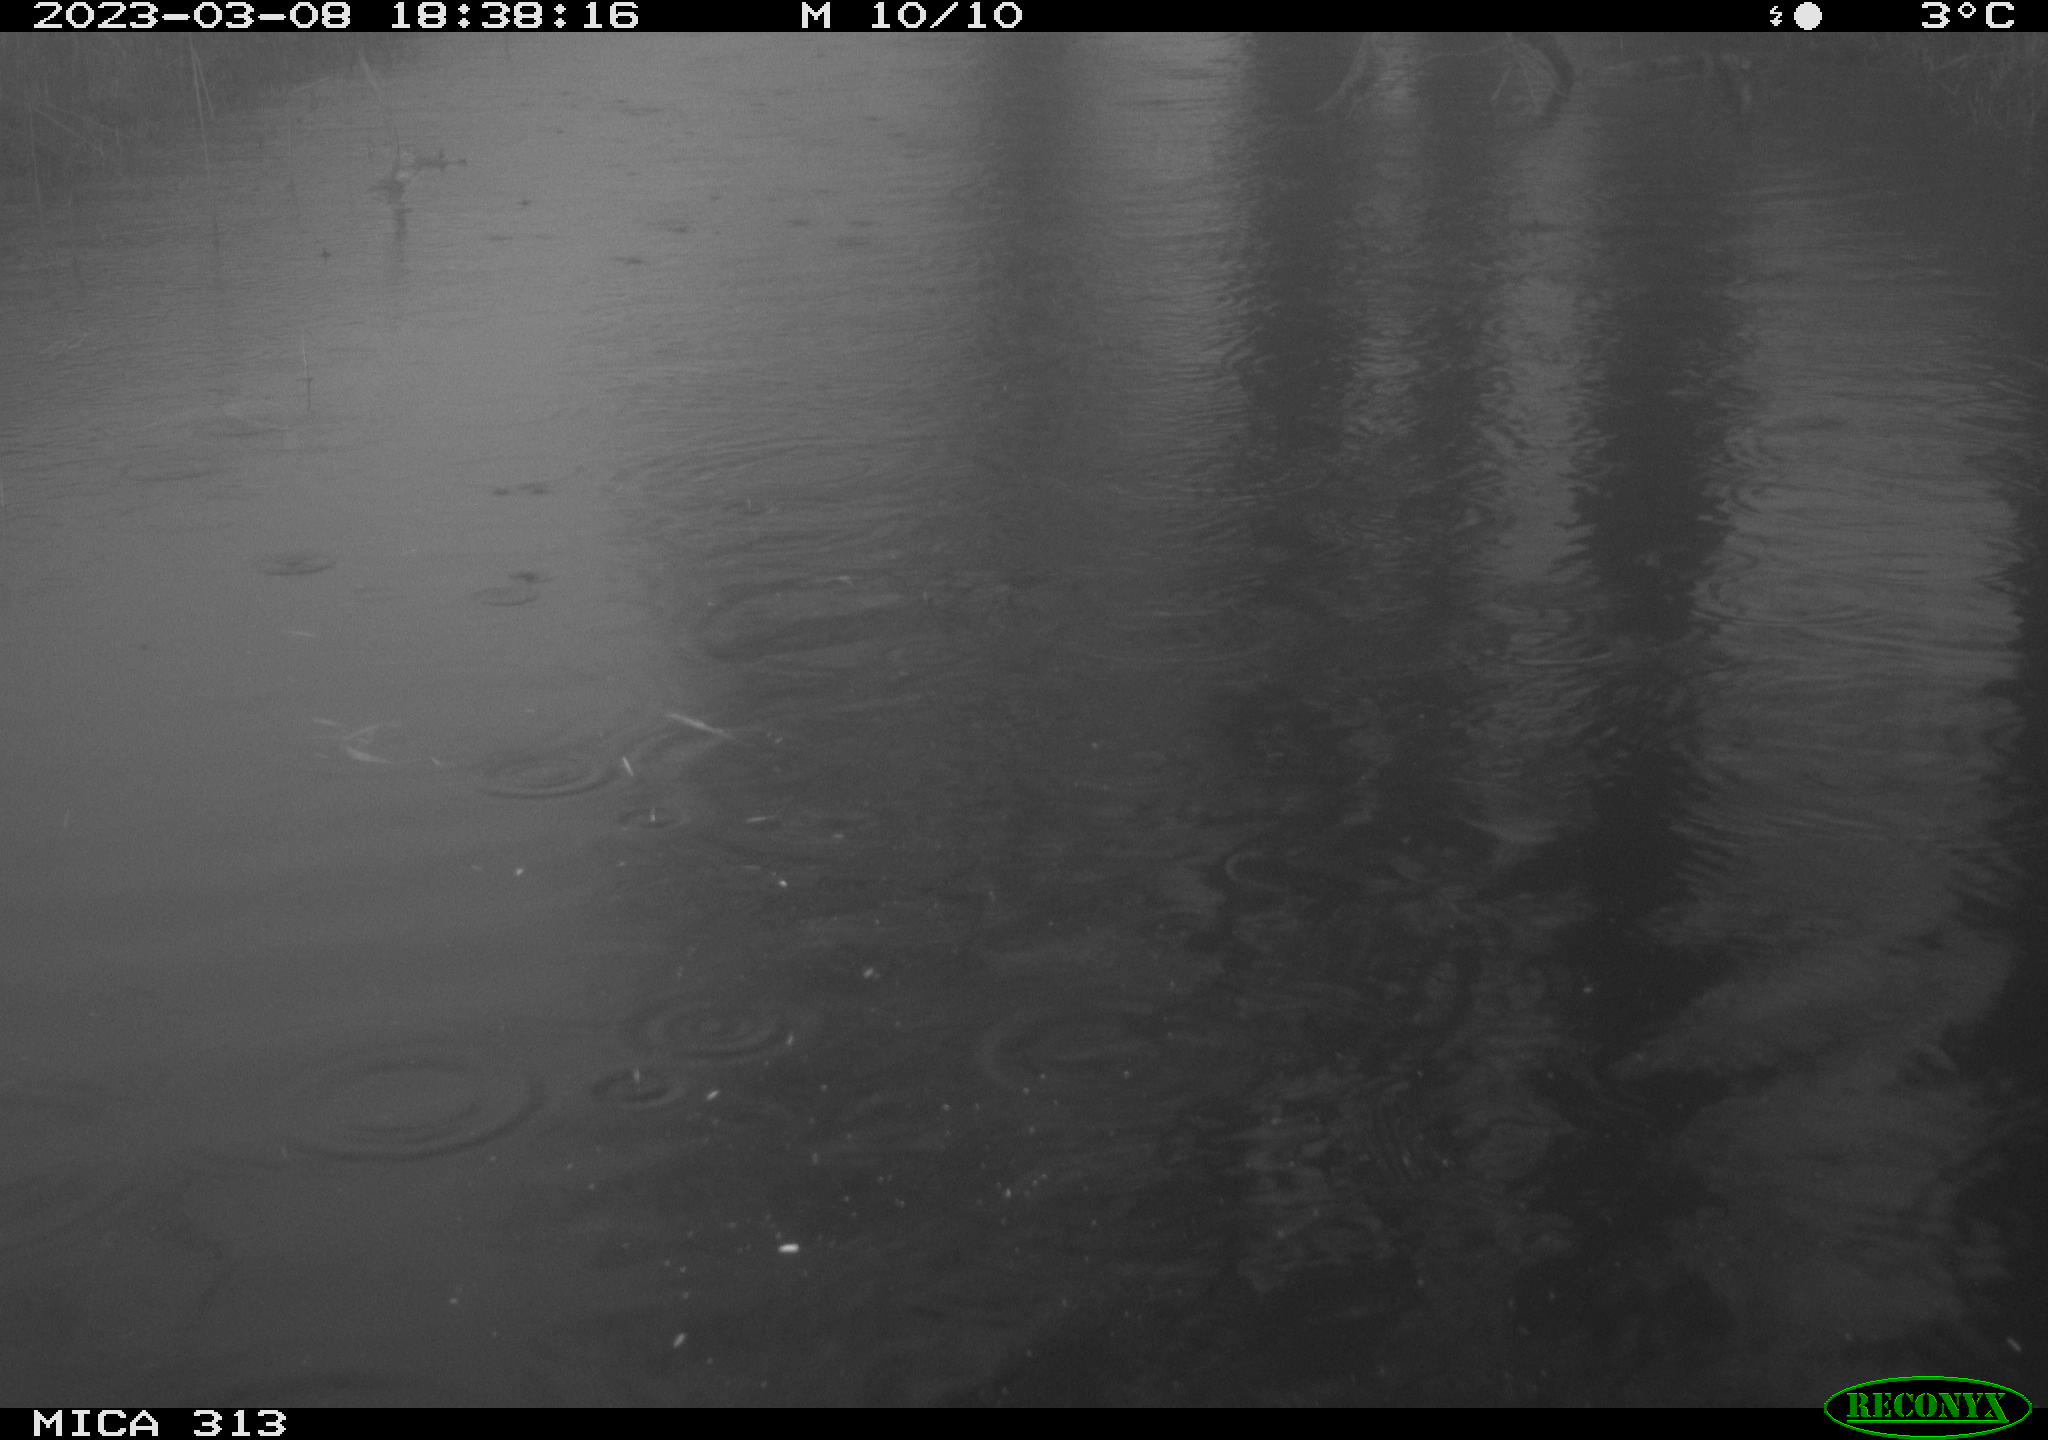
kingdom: Animalia
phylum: Chordata
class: Aves
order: Anseriformes
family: Anatidae
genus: Anas
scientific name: Anas
